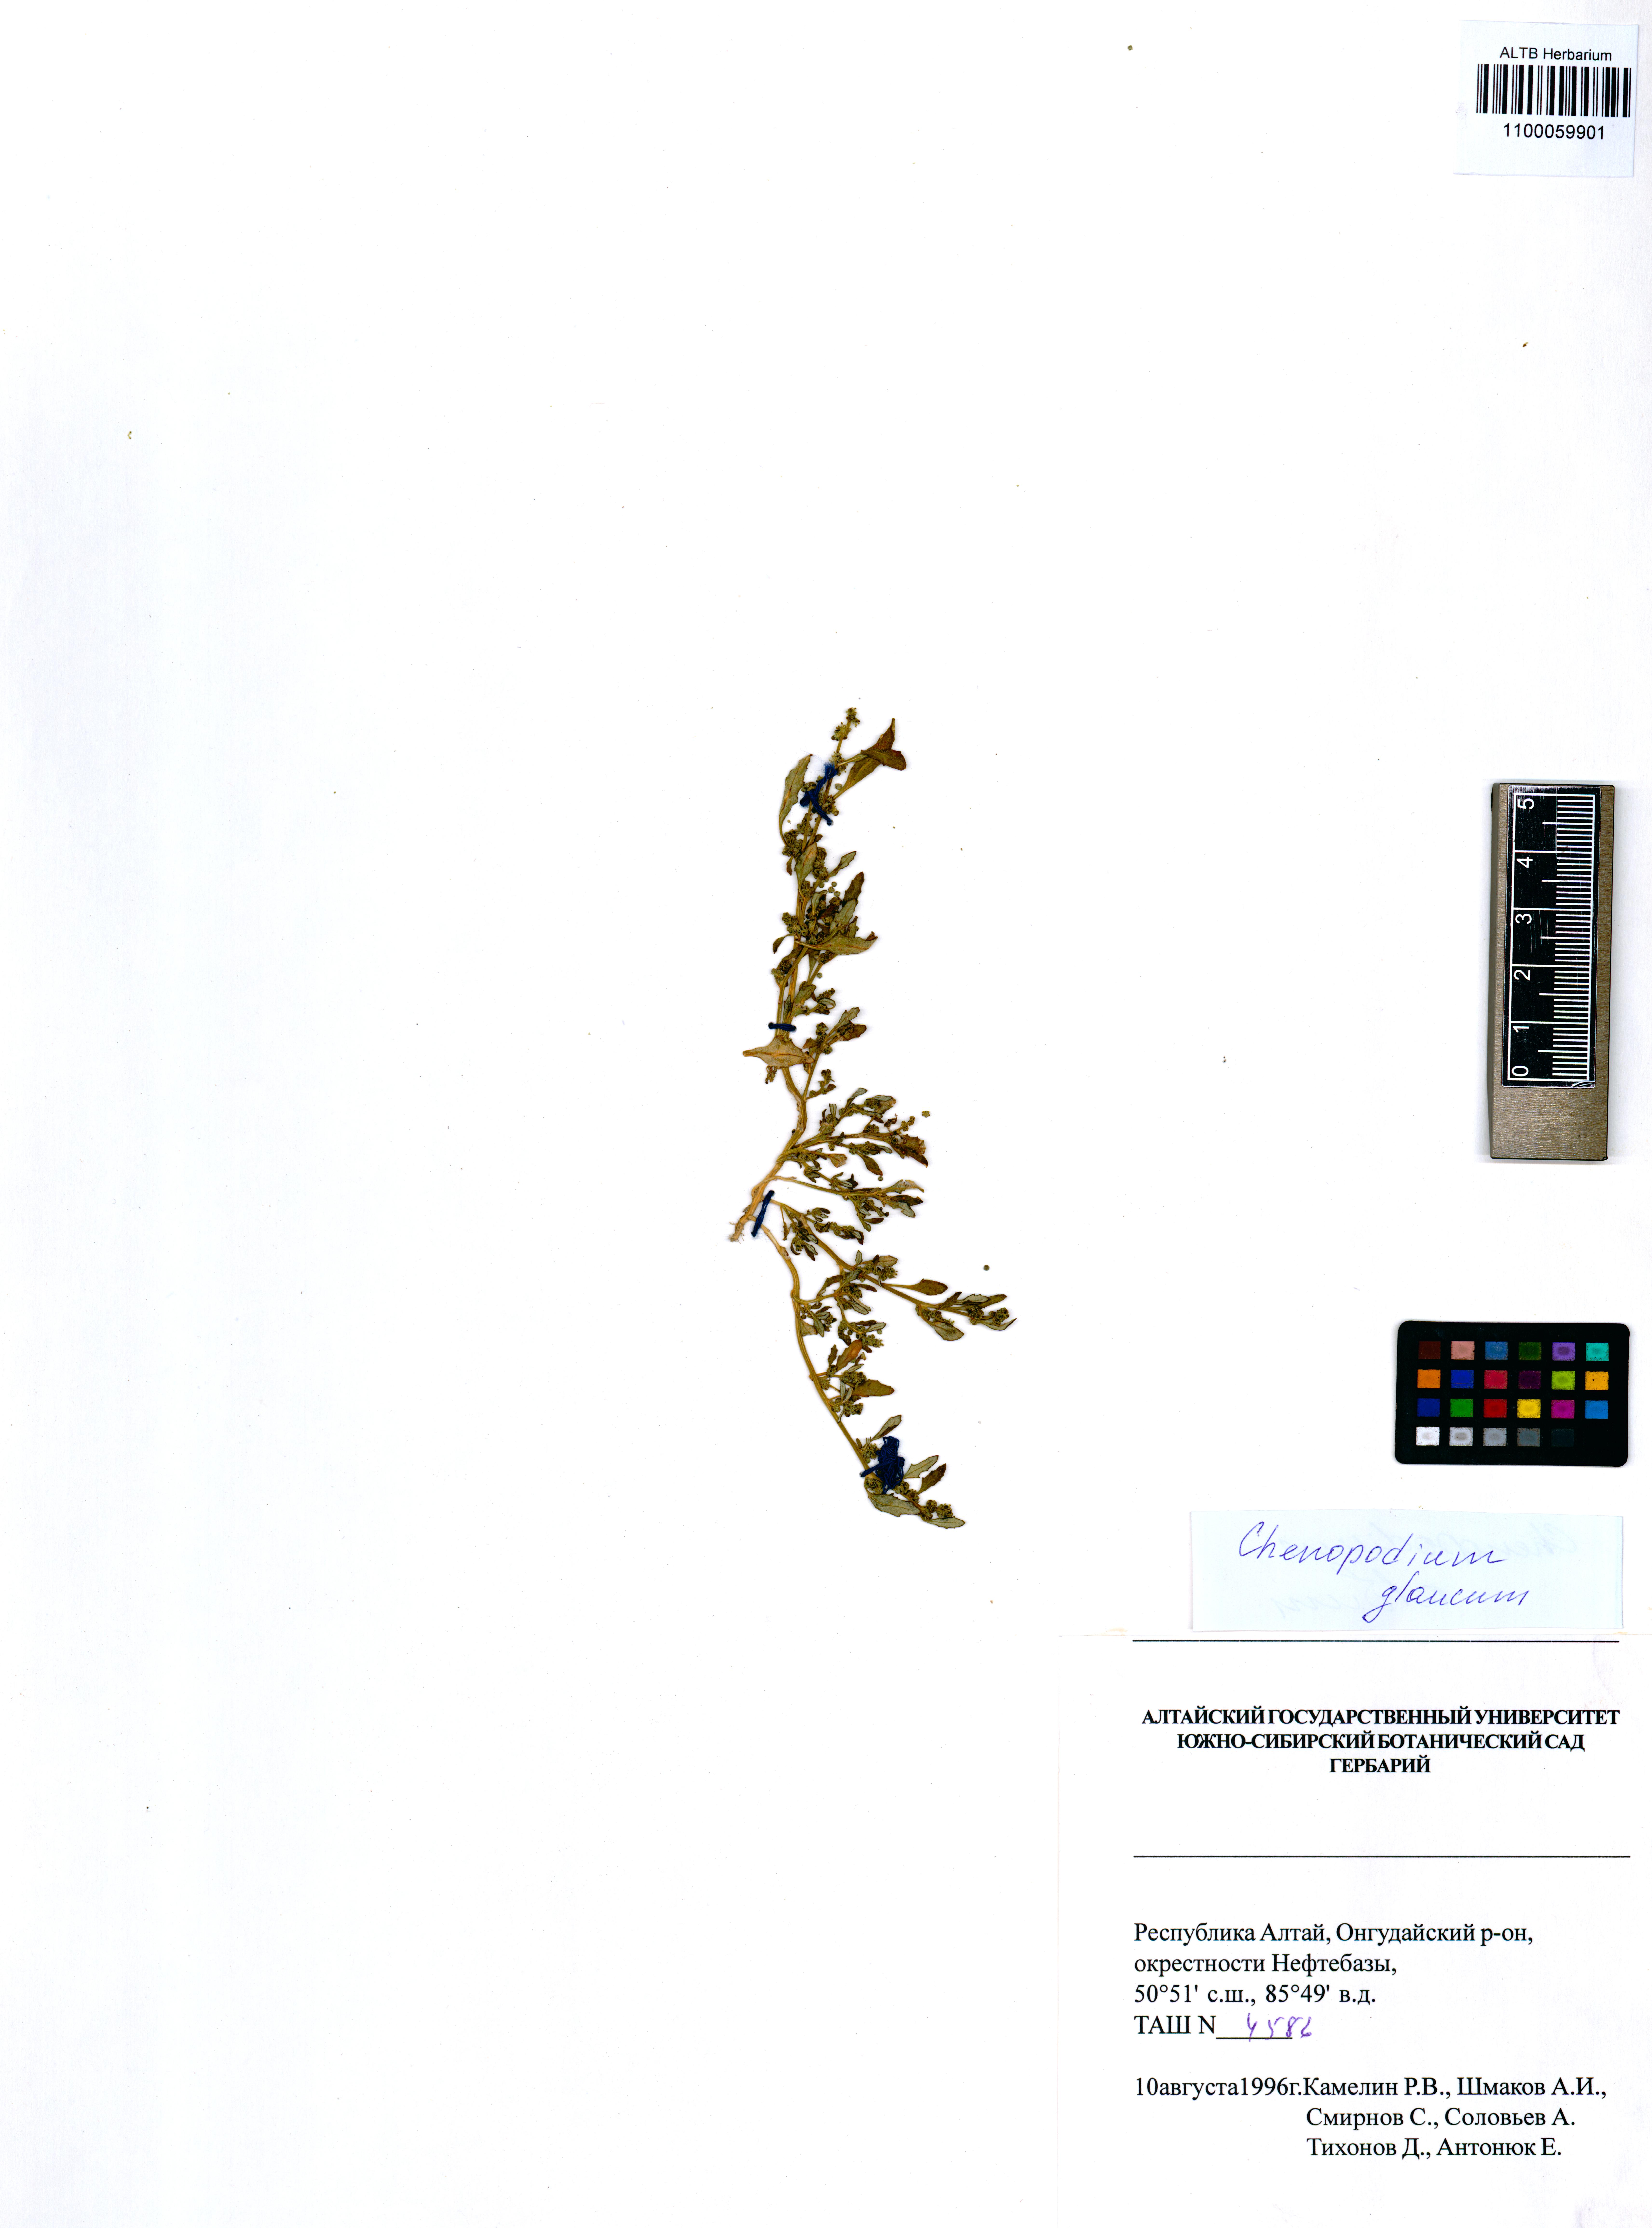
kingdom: Plantae
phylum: Tracheophyta
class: Magnoliopsida
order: Caryophyllales
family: Amaranthaceae
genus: Oxybasis
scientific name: Oxybasis glauca
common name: Glaucous goosefoot
